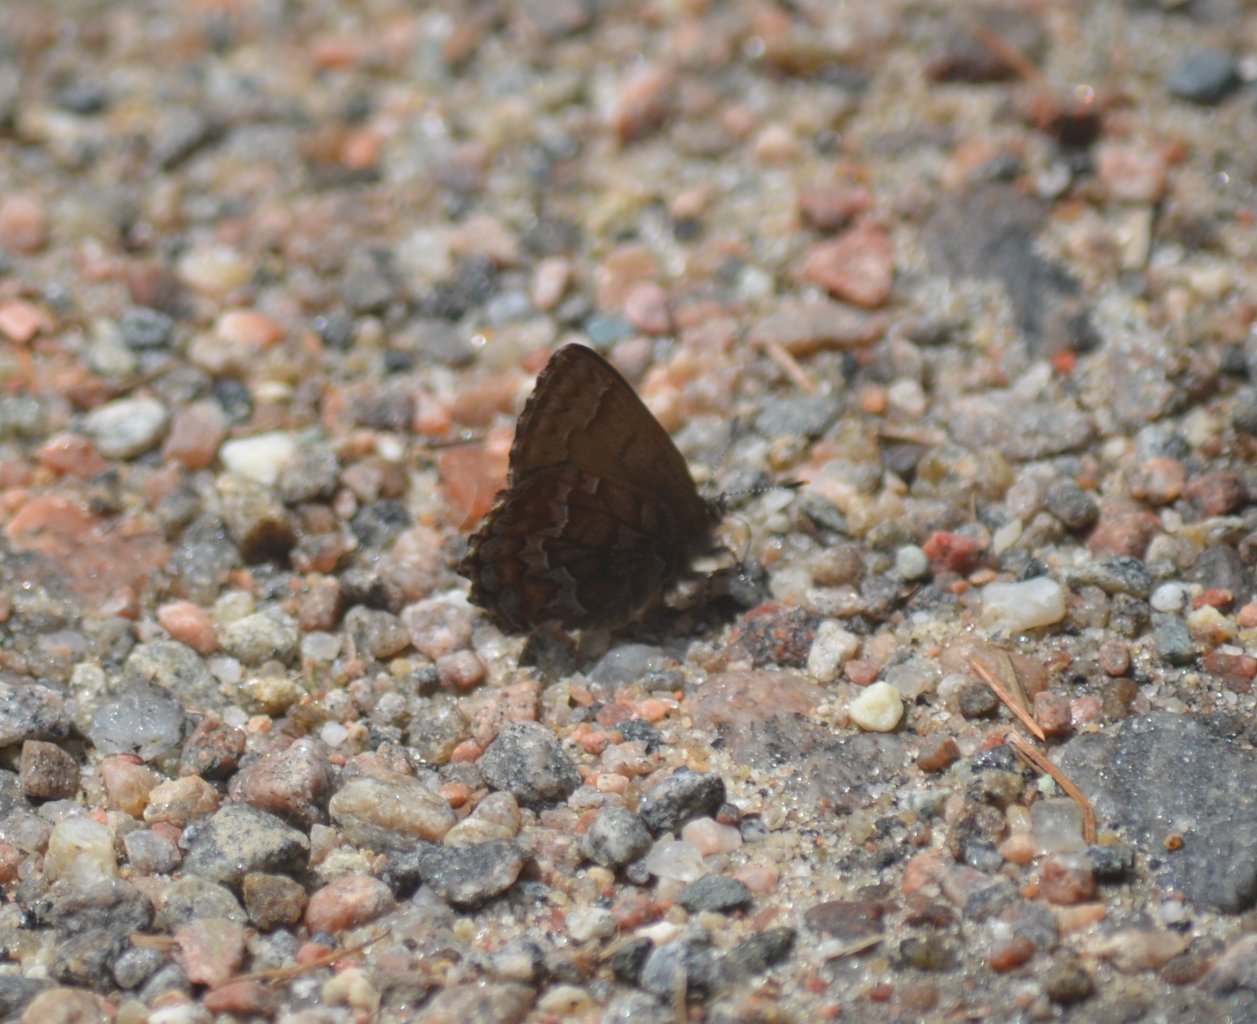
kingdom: Animalia
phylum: Arthropoda
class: Insecta
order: Lepidoptera
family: Lycaenidae
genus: Incisalia
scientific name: Incisalia niphon
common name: Eastern Pine Elfin
